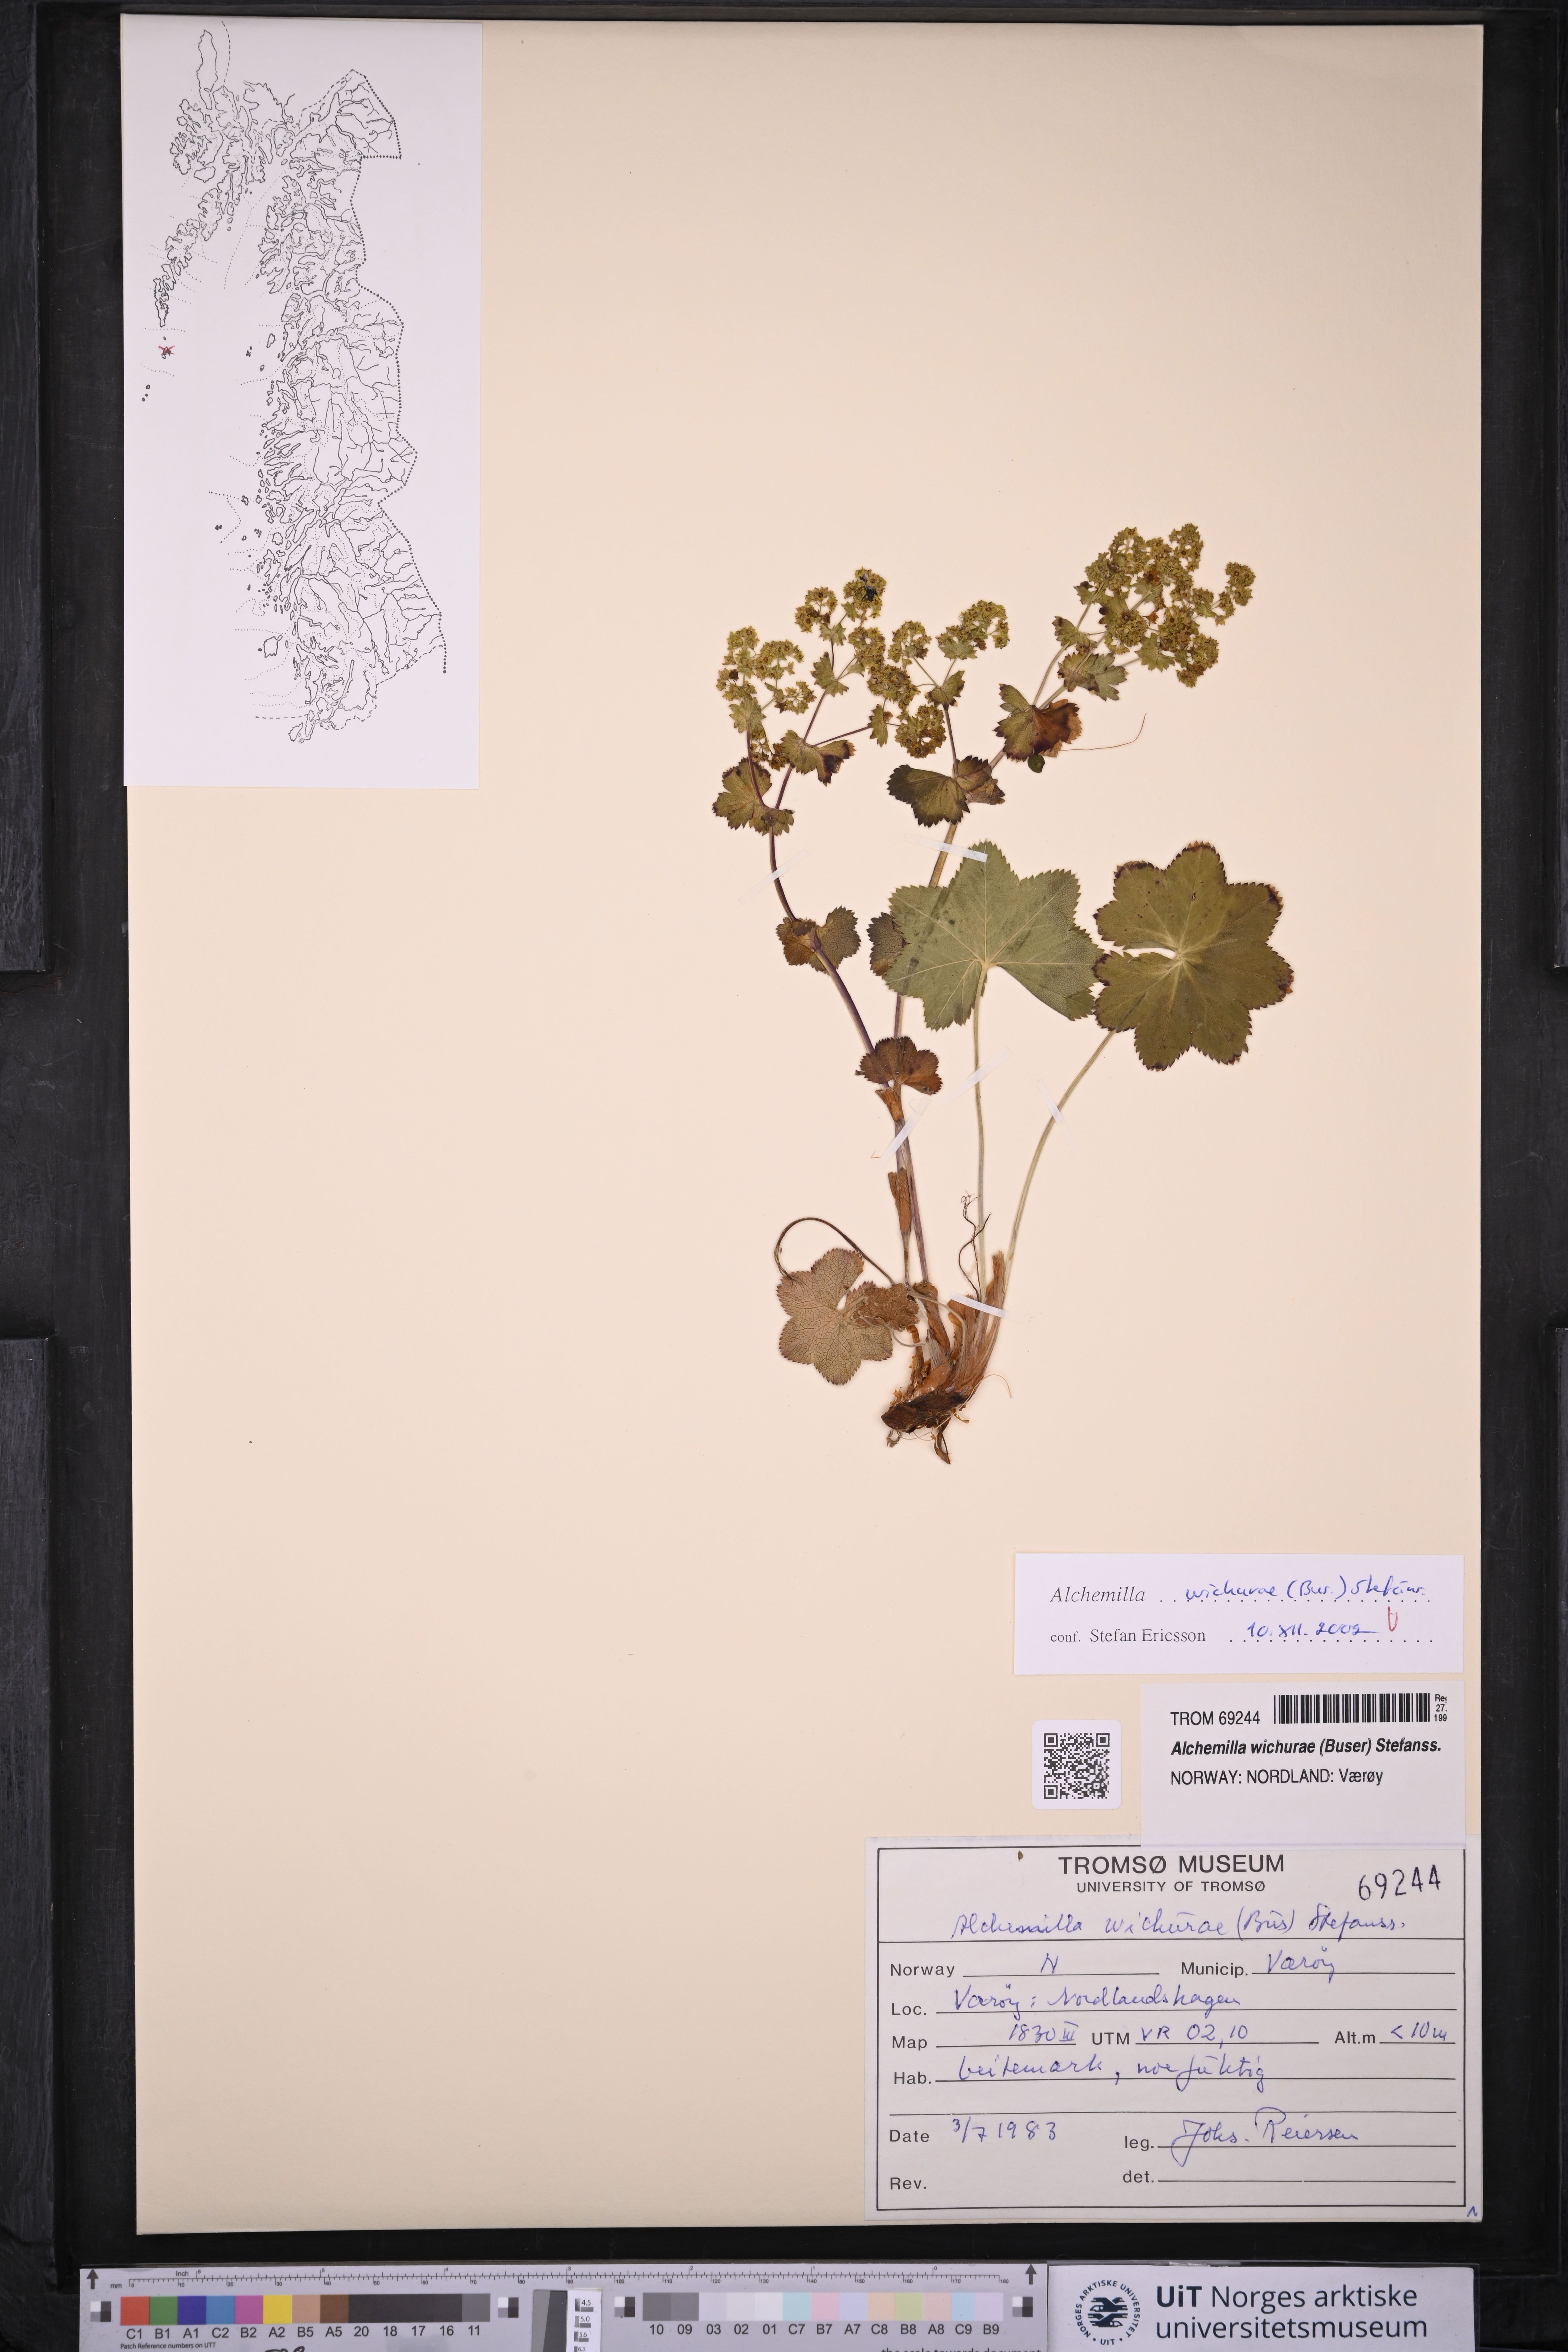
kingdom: Plantae
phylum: Tracheophyta
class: Magnoliopsida
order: Rosales
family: Rosaceae
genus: Alchemilla
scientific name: Alchemilla wichurae
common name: Rock lady's mantle
